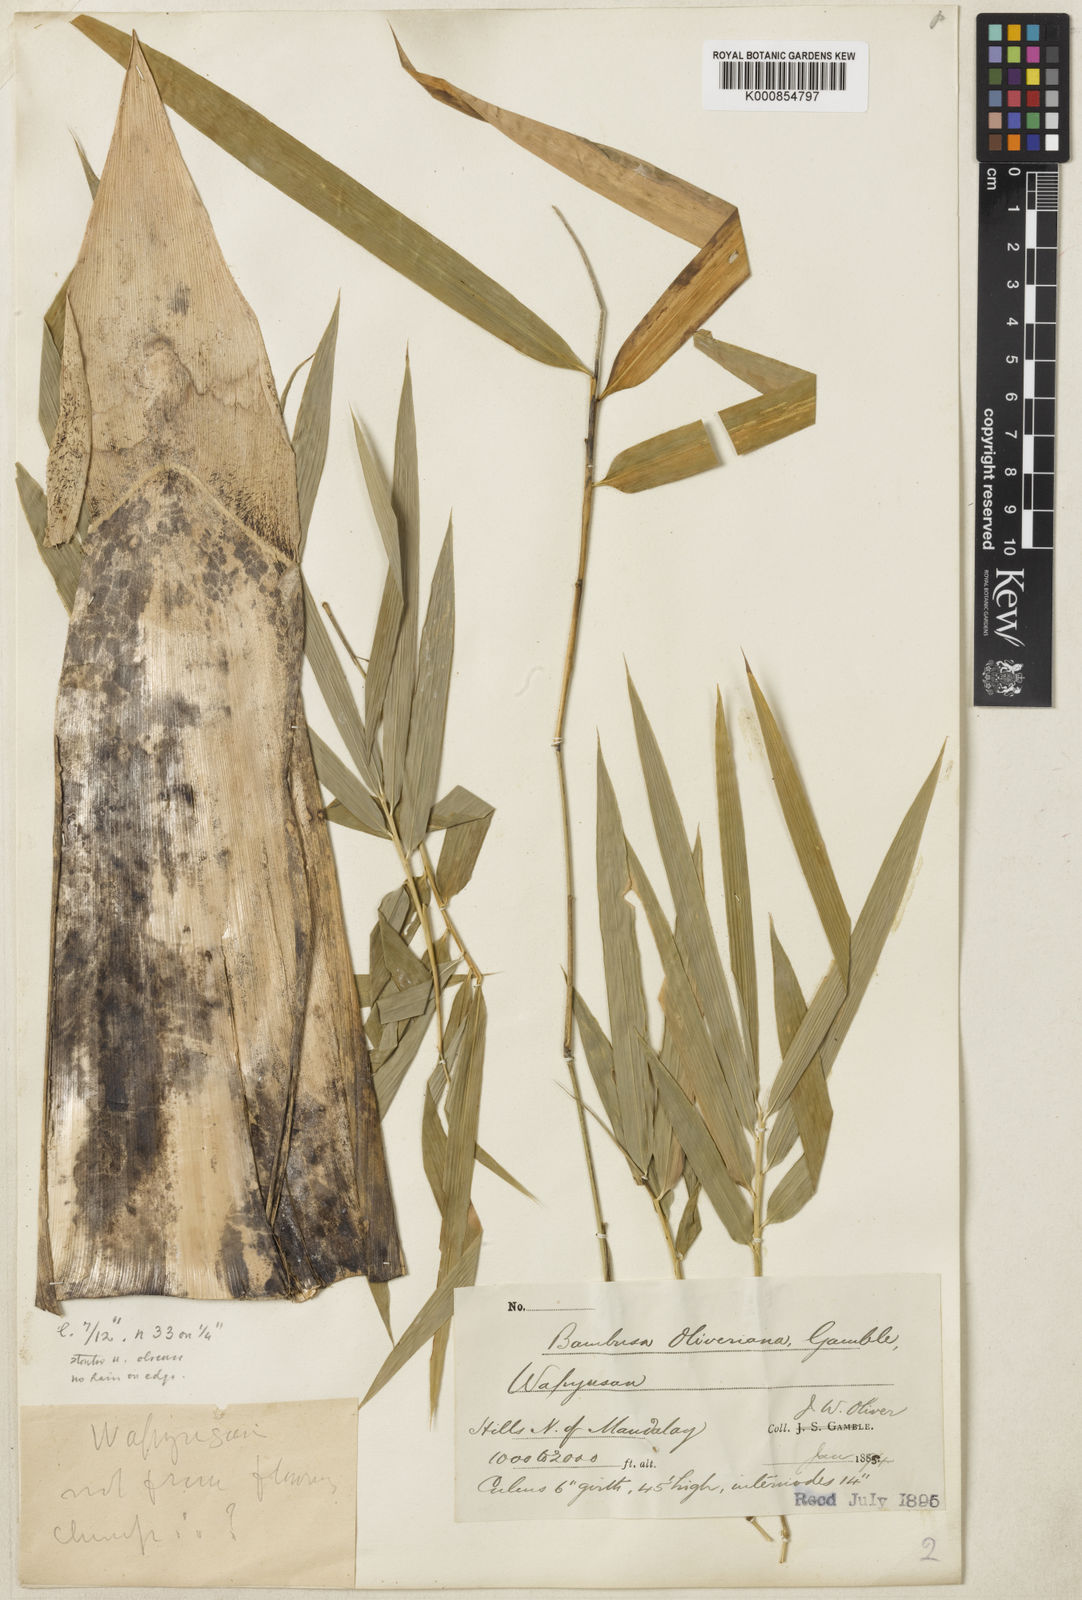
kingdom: Plantae
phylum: Tracheophyta
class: Liliopsida
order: Poales
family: Poaceae
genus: Bambusa
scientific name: Bambusa oliveriana
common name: Bush bamboo
